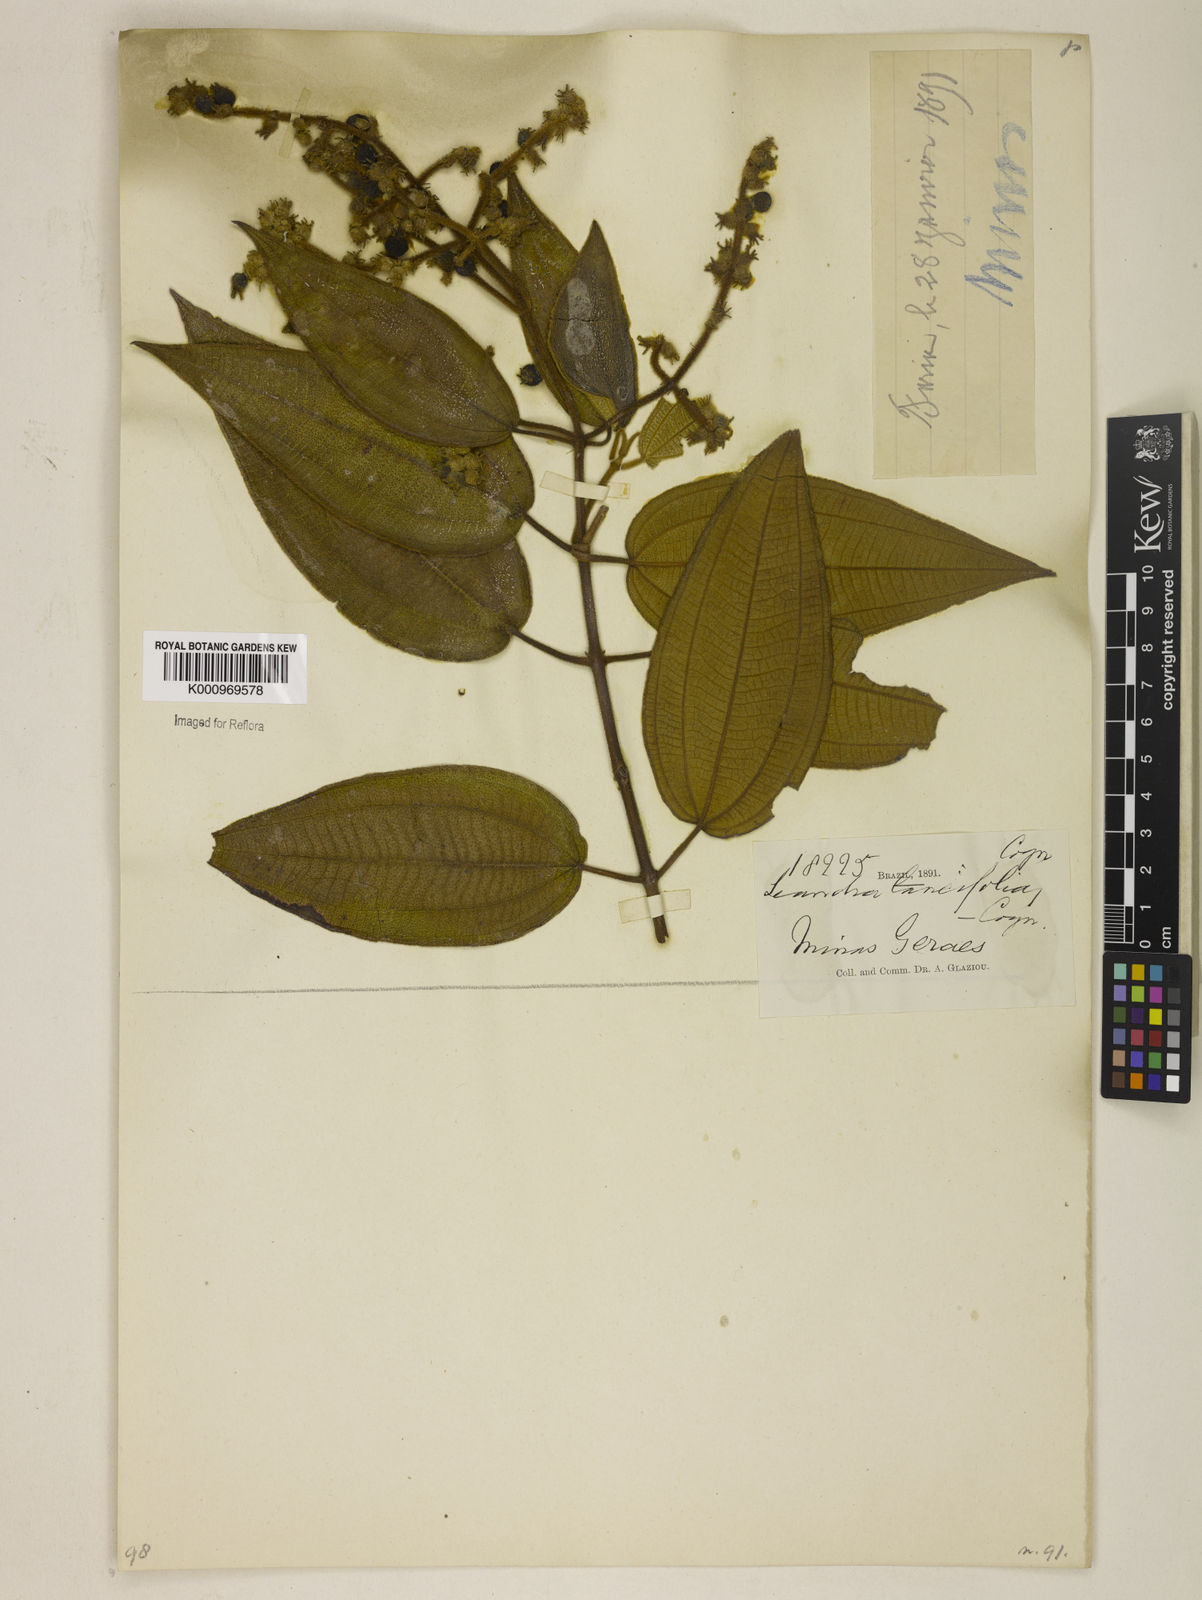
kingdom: Plantae
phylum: Tracheophyta
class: Magnoliopsida
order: Myrtales
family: Melastomataceae
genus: Miconia
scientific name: Miconia
